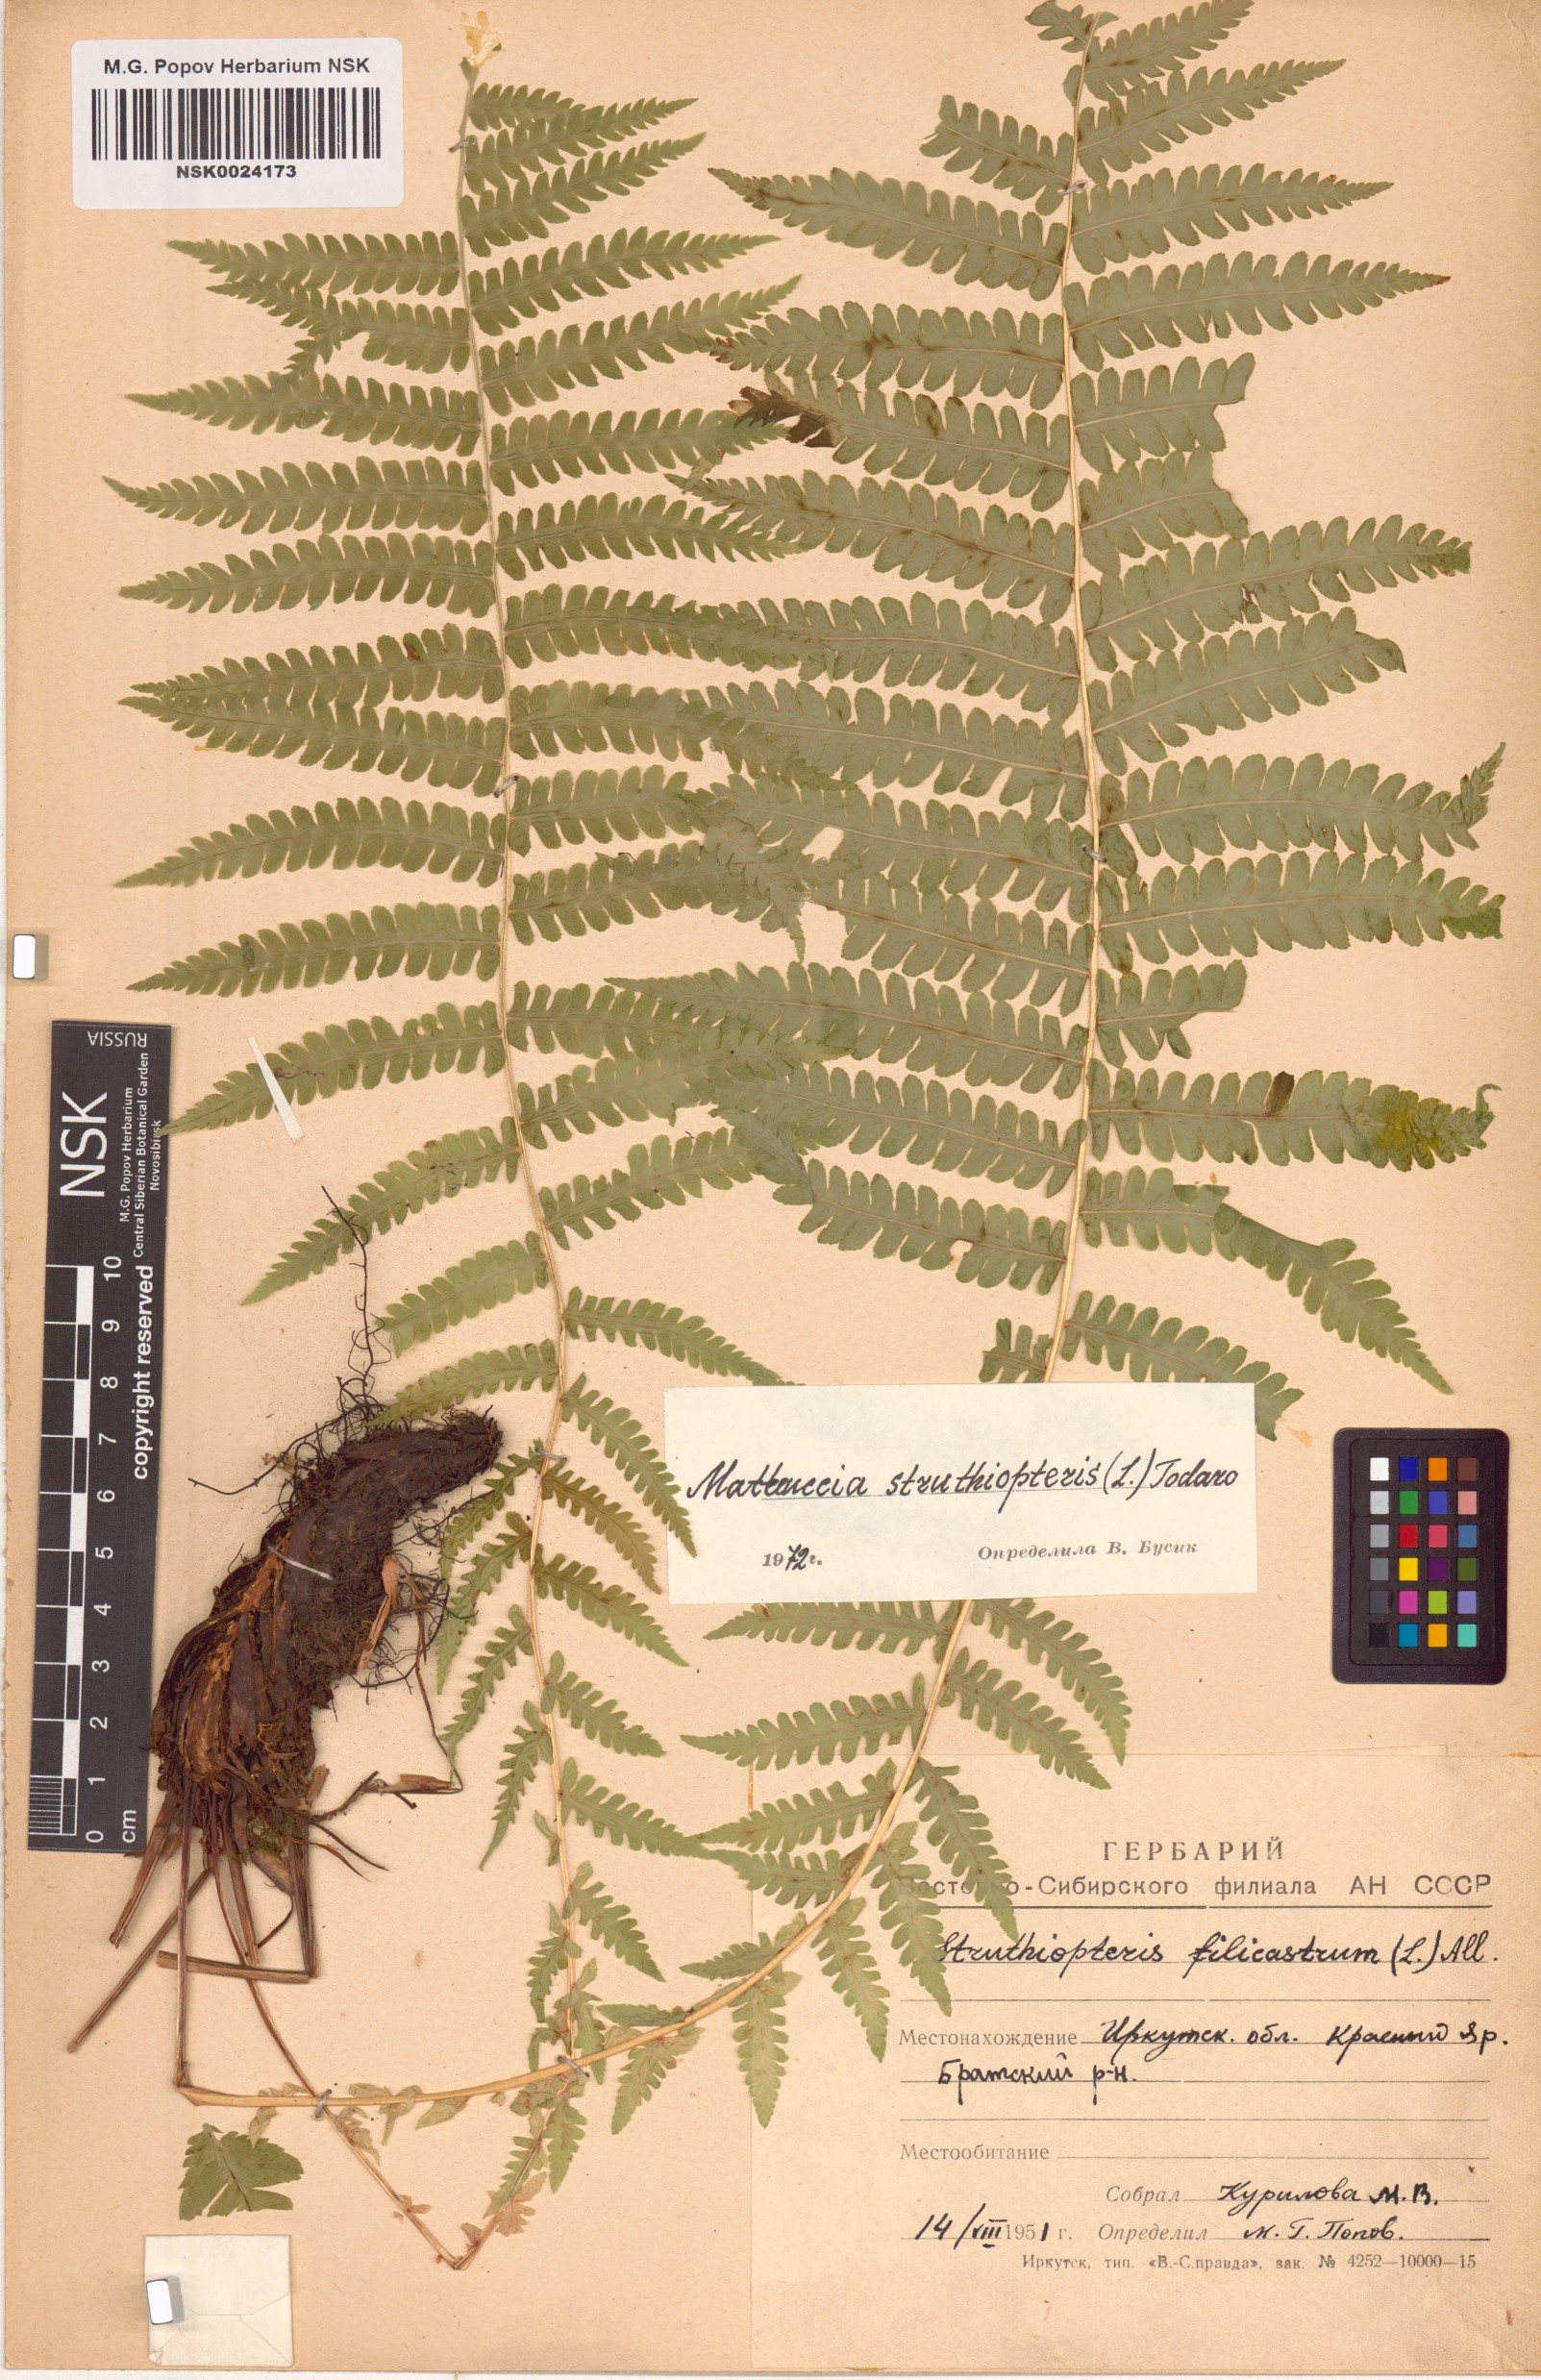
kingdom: Plantae
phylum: Tracheophyta
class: Polypodiopsida
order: Polypodiales
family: Onocleaceae
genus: Matteuccia
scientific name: Matteuccia struthiopteris
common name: Ostrich fern
